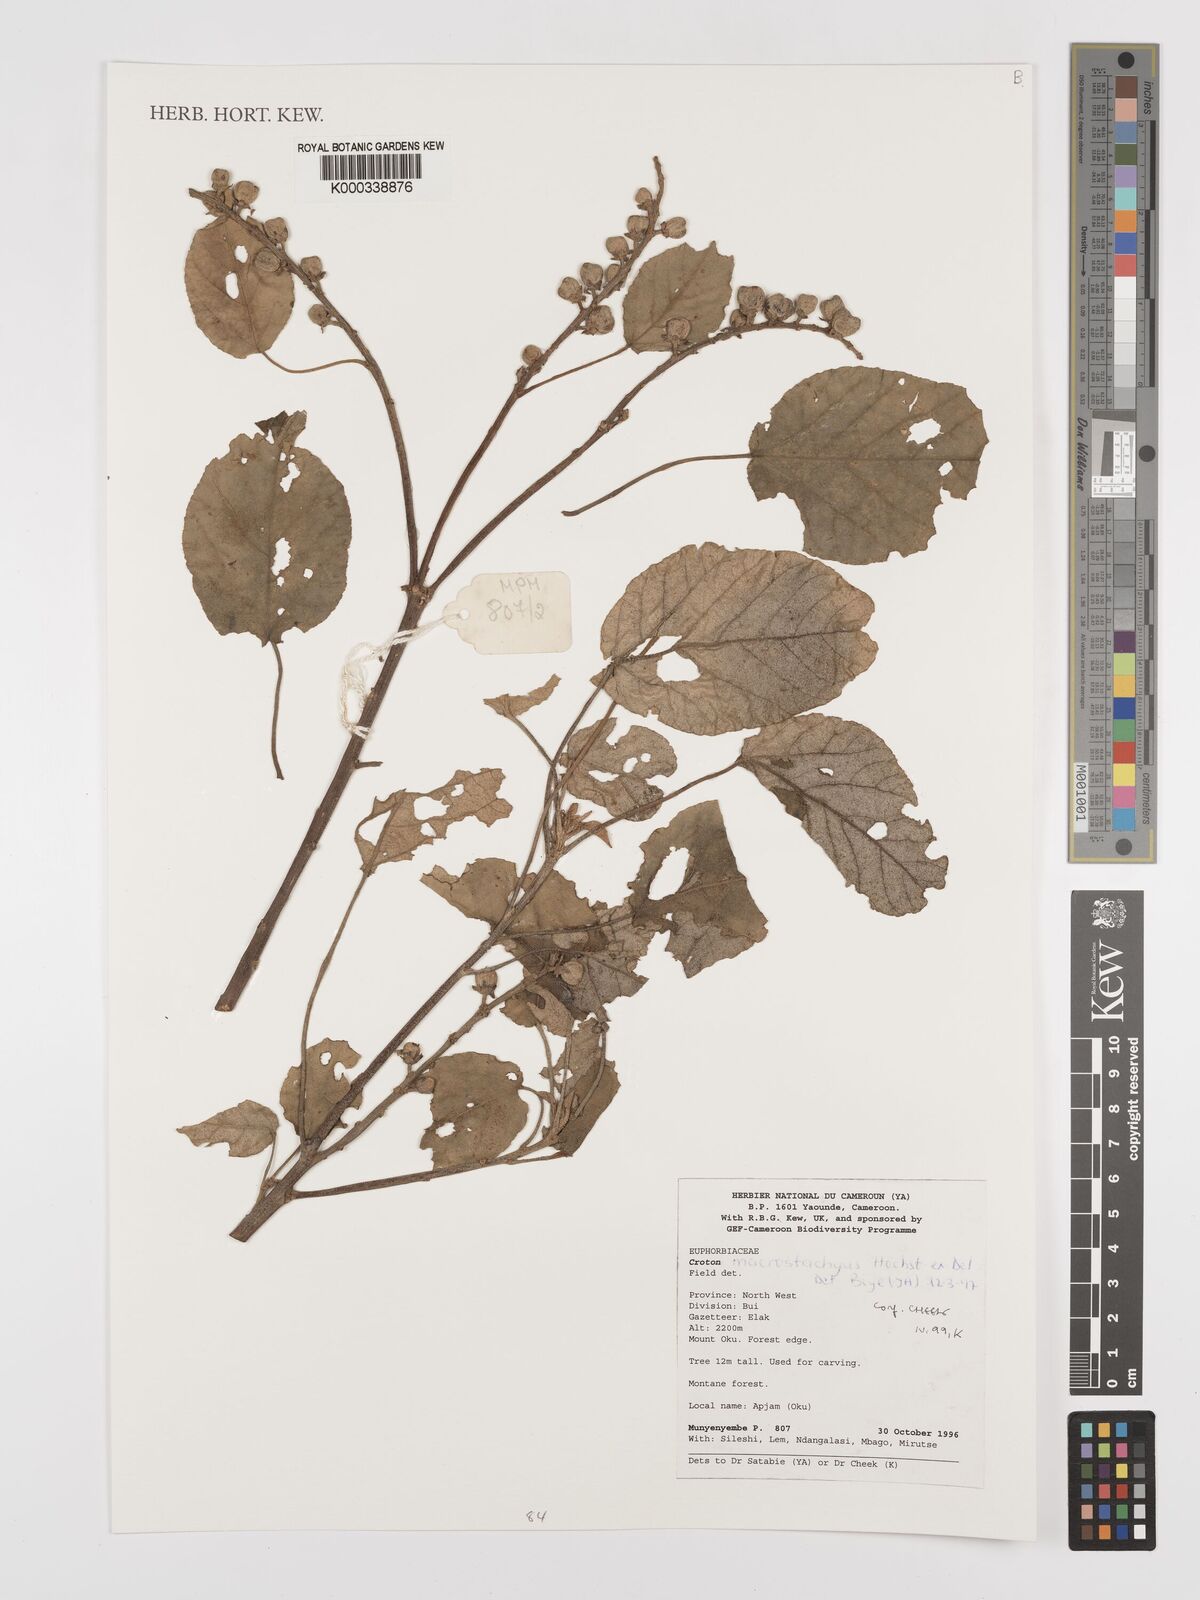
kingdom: Plantae
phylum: Tracheophyta
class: Magnoliopsida
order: Malpighiales
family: Euphorbiaceae
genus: Croton
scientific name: Croton macrostachyus
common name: Mutundu
